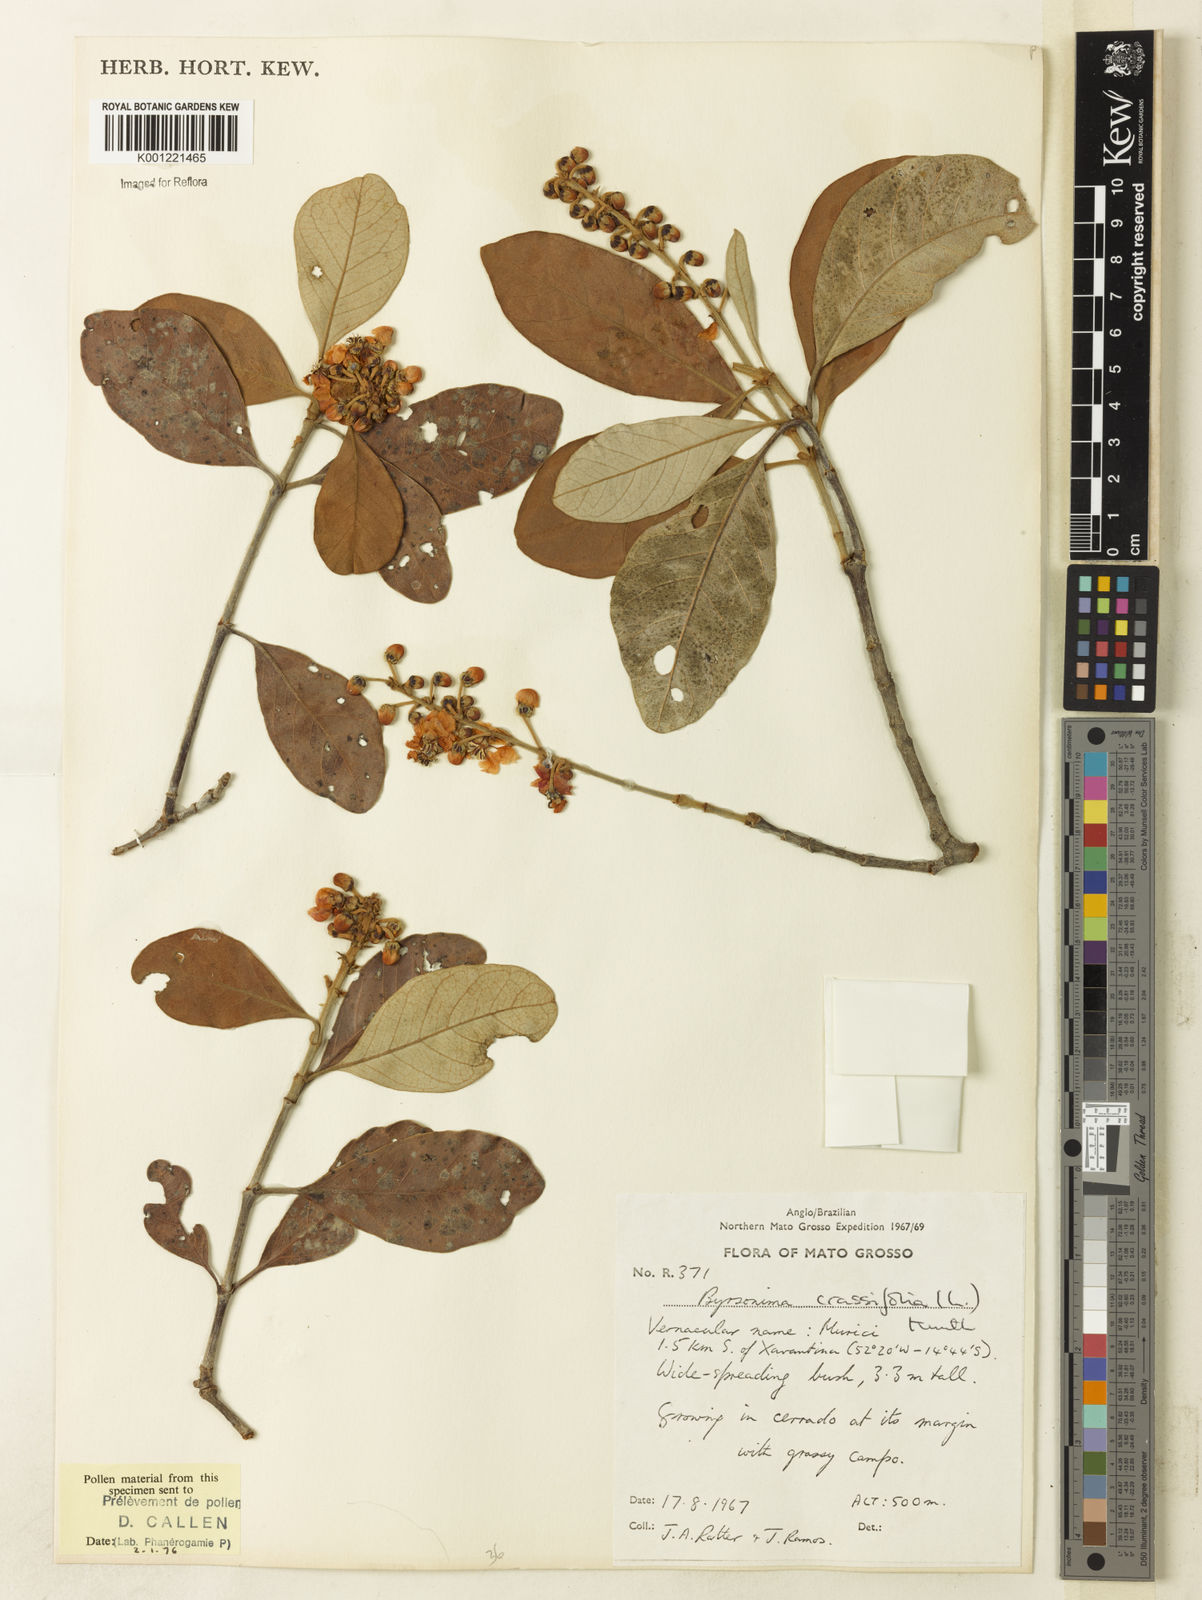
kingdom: Plantae
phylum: Tracheophyta
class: Magnoliopsida
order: Malpighiales
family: Malpighiaceae
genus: Byrsonima
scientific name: Byrsonima cydoniifolia
